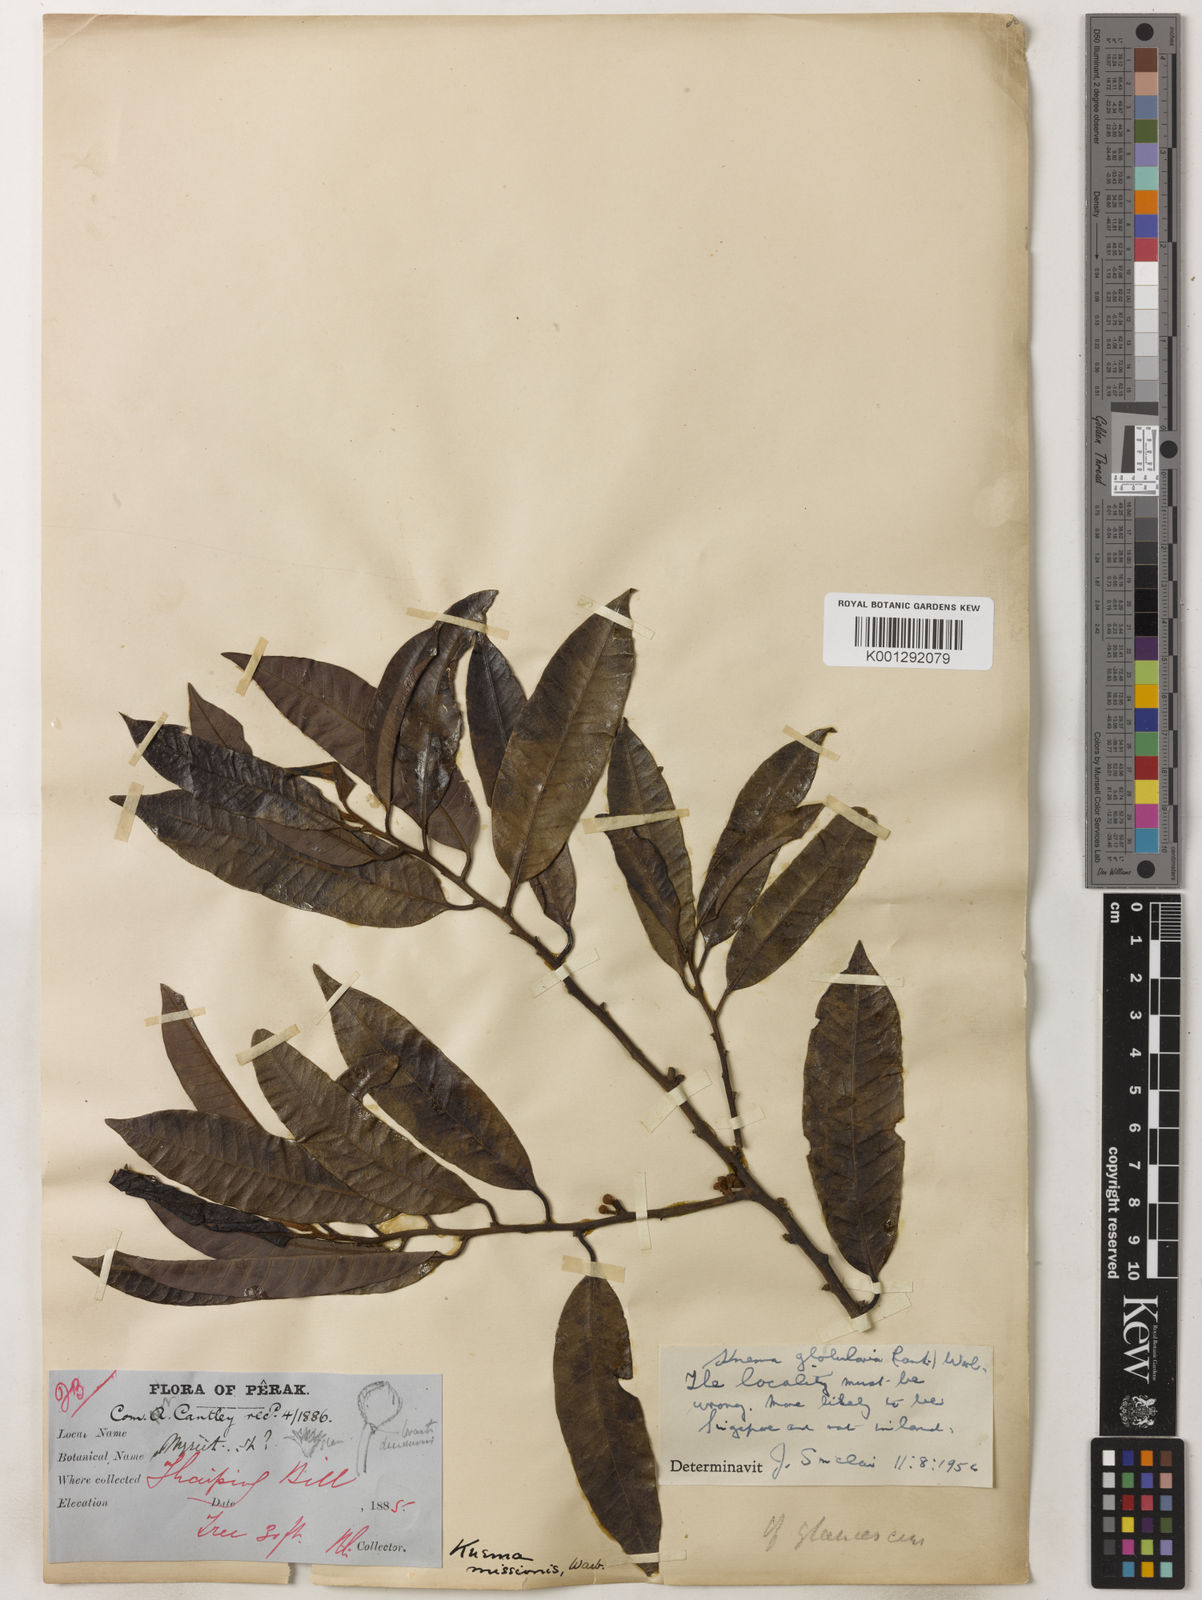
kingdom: Plantae
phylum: Tracheophyta
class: Magnoliopsida
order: Magnoliales
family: Myristicaceae
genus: Knema
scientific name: Knema globularia
